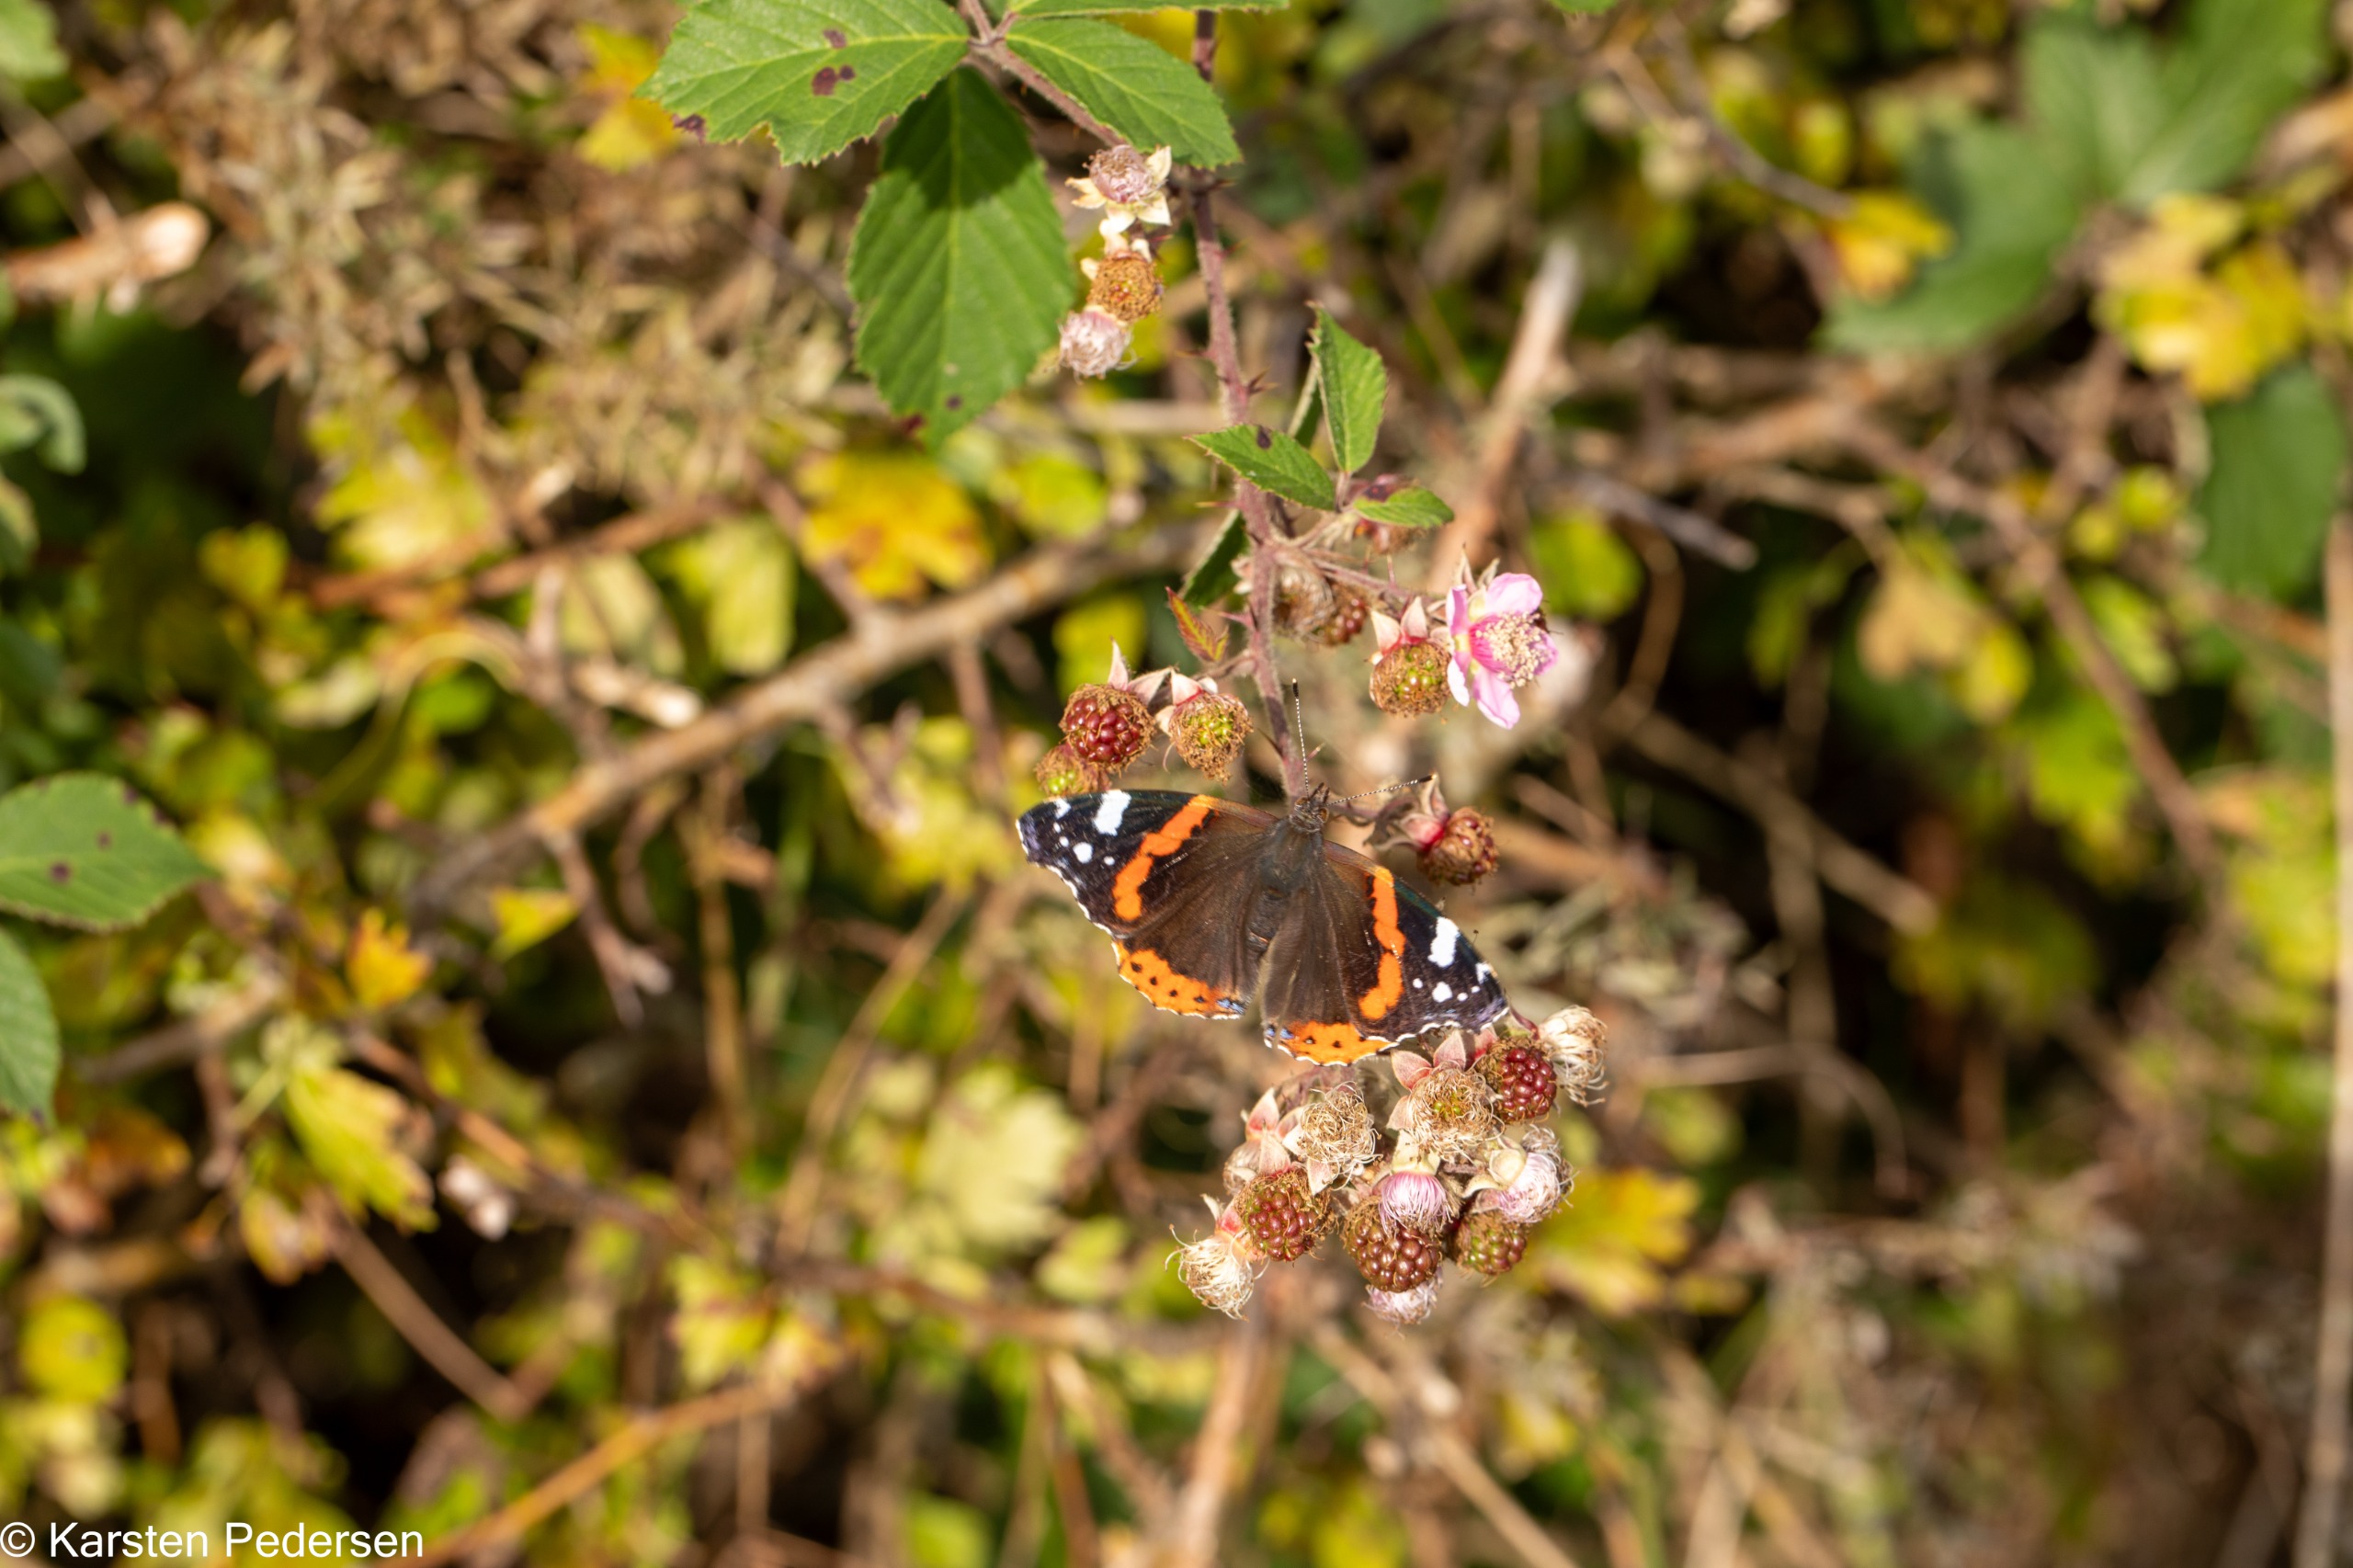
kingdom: Animalia
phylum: Arthropoda
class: Insecta
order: Lepidoptera
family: Nymphalidae
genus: Vanessa
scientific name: Vanessa atalanta
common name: Admiral
